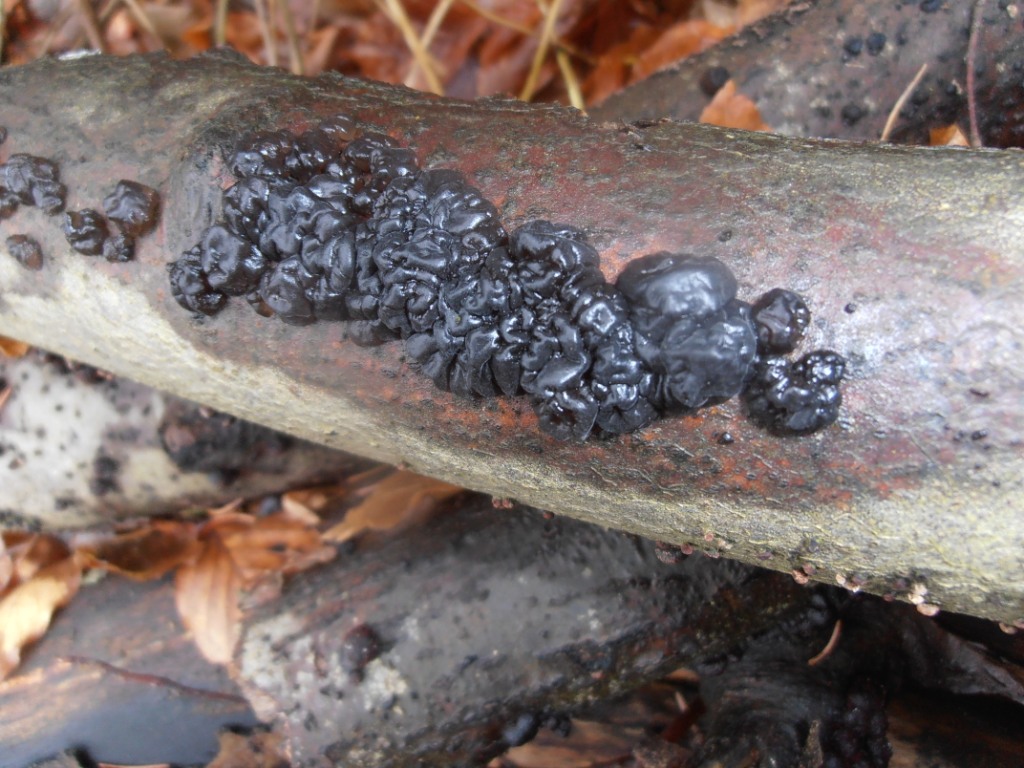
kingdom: Fungi
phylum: Basidiomycota
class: Agaricomycetes
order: Auriculariales
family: Auriculariaceae
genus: Exidia
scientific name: Exidia nigricans
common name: almindelig bævretop
